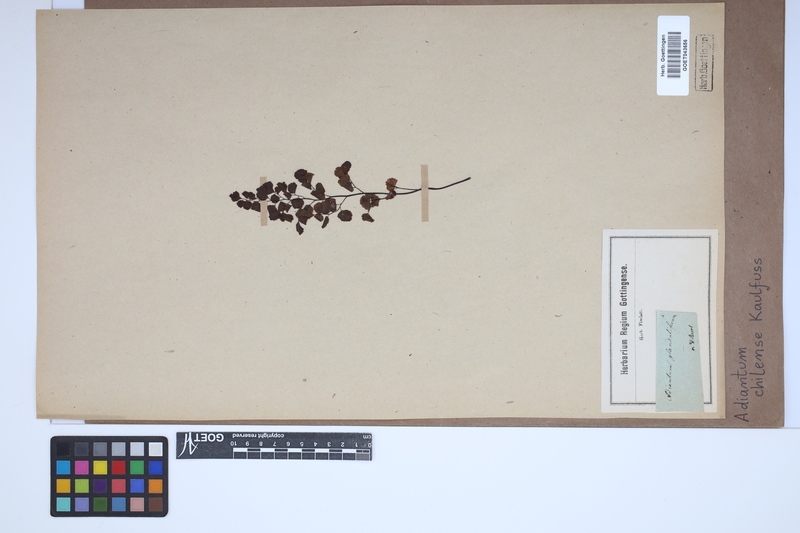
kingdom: Plantae
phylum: Tracheophyta
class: Polypodiopsida
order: Polypodiales
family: Pteridaceae
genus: Adiantum
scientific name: Adiantum chilense
